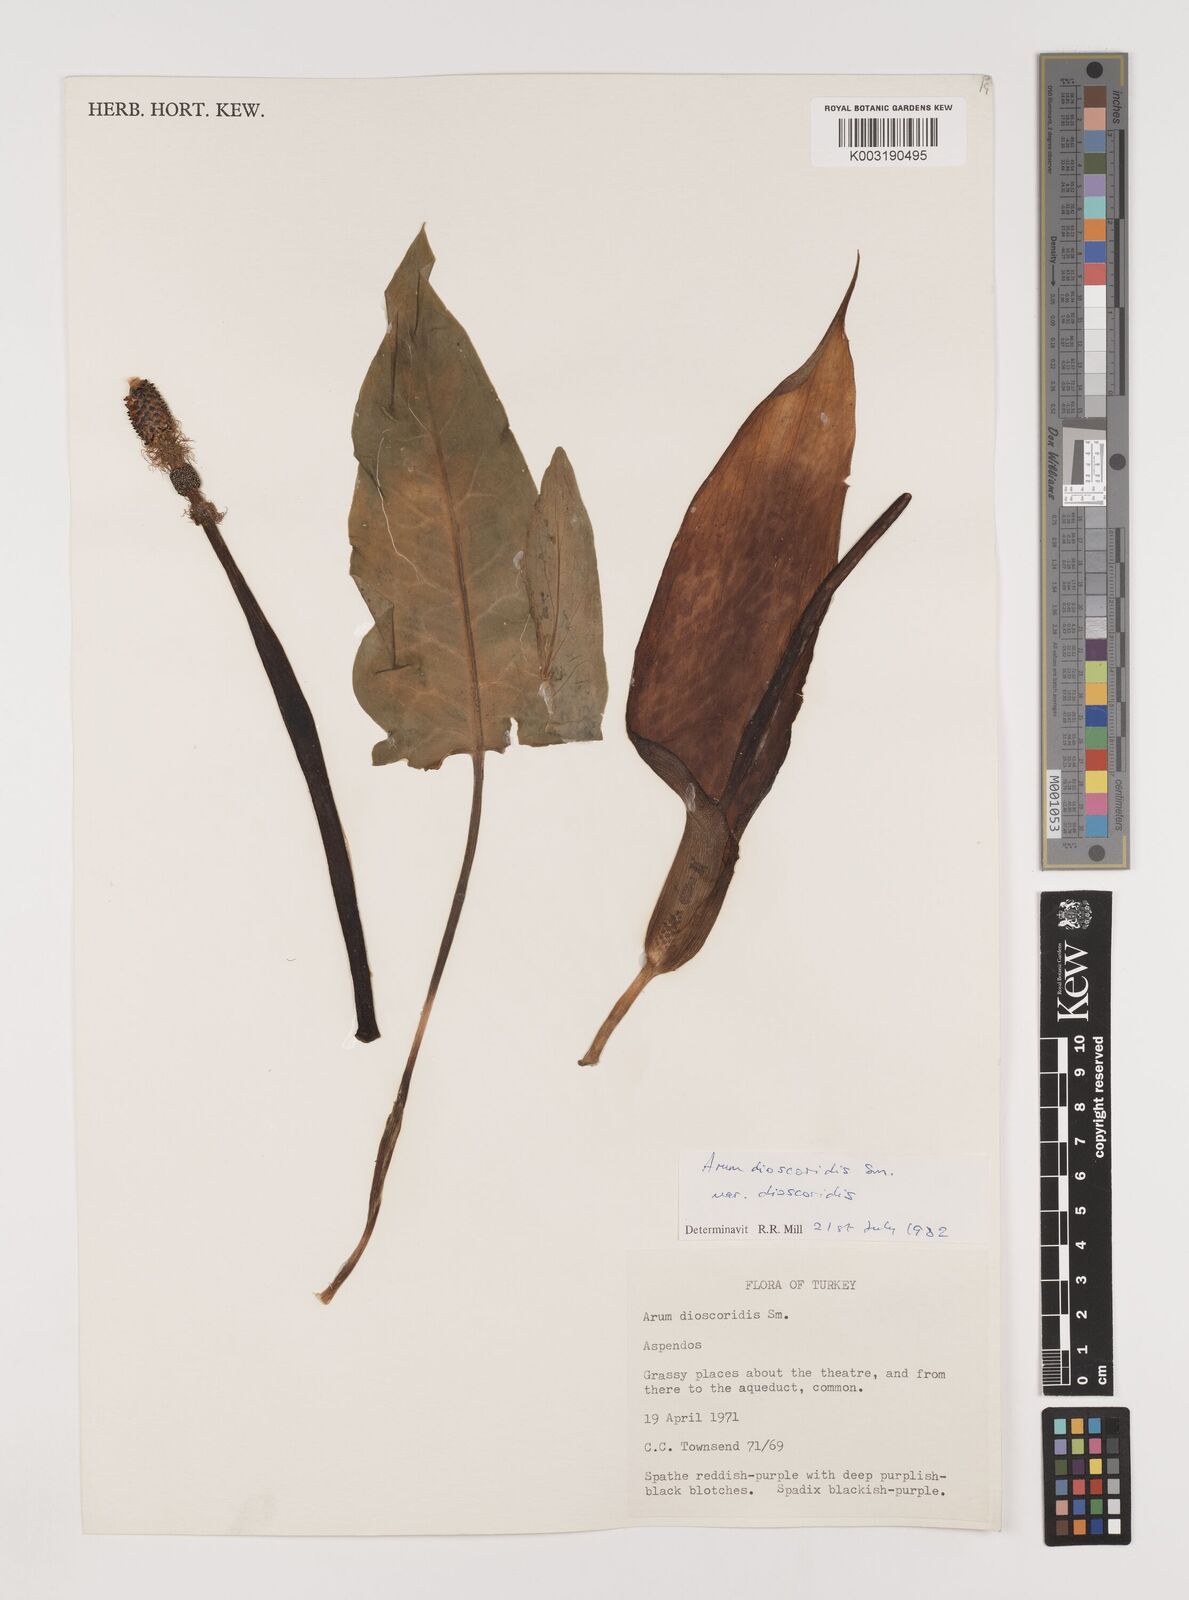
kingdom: Plantae
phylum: Tracheophyta
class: Liliopsida
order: Alismatales
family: Araceae
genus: Arum
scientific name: Arum dioscoridis
